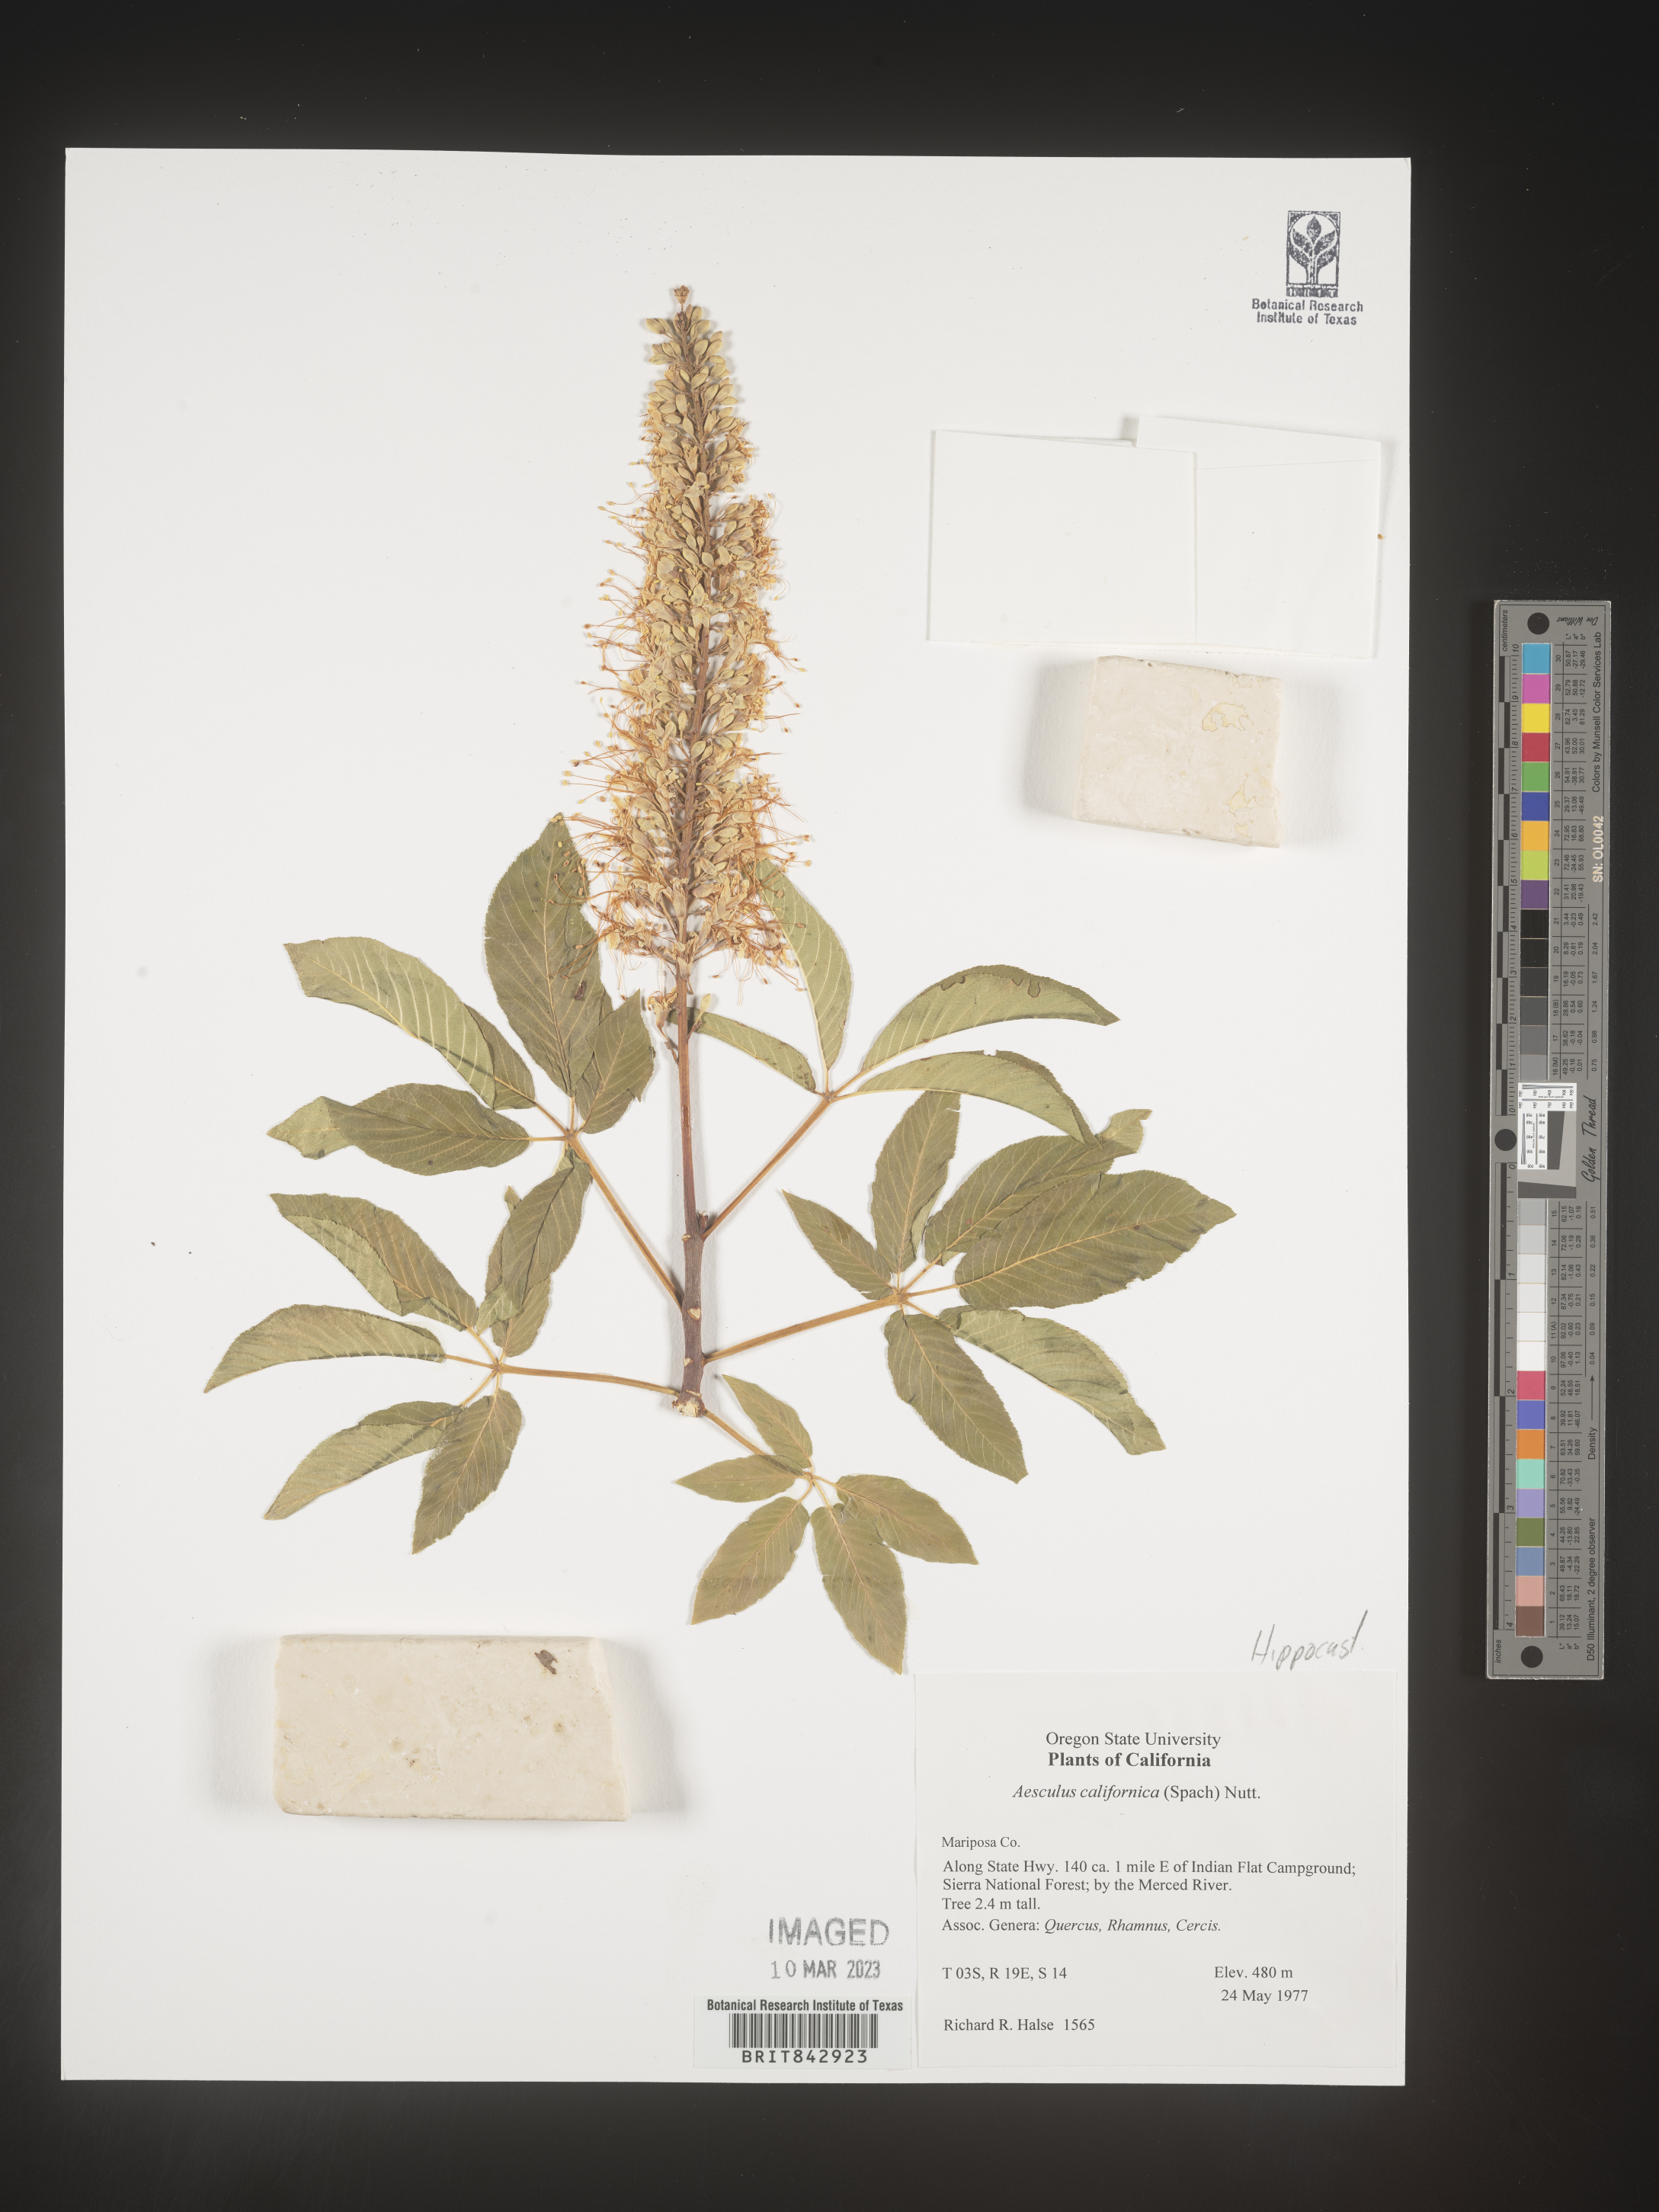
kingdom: Plantae
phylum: Tracheophyta
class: Magnoliopsida
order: Sapindales
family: Sapindaceae
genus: Aesculus
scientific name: Aesculus
